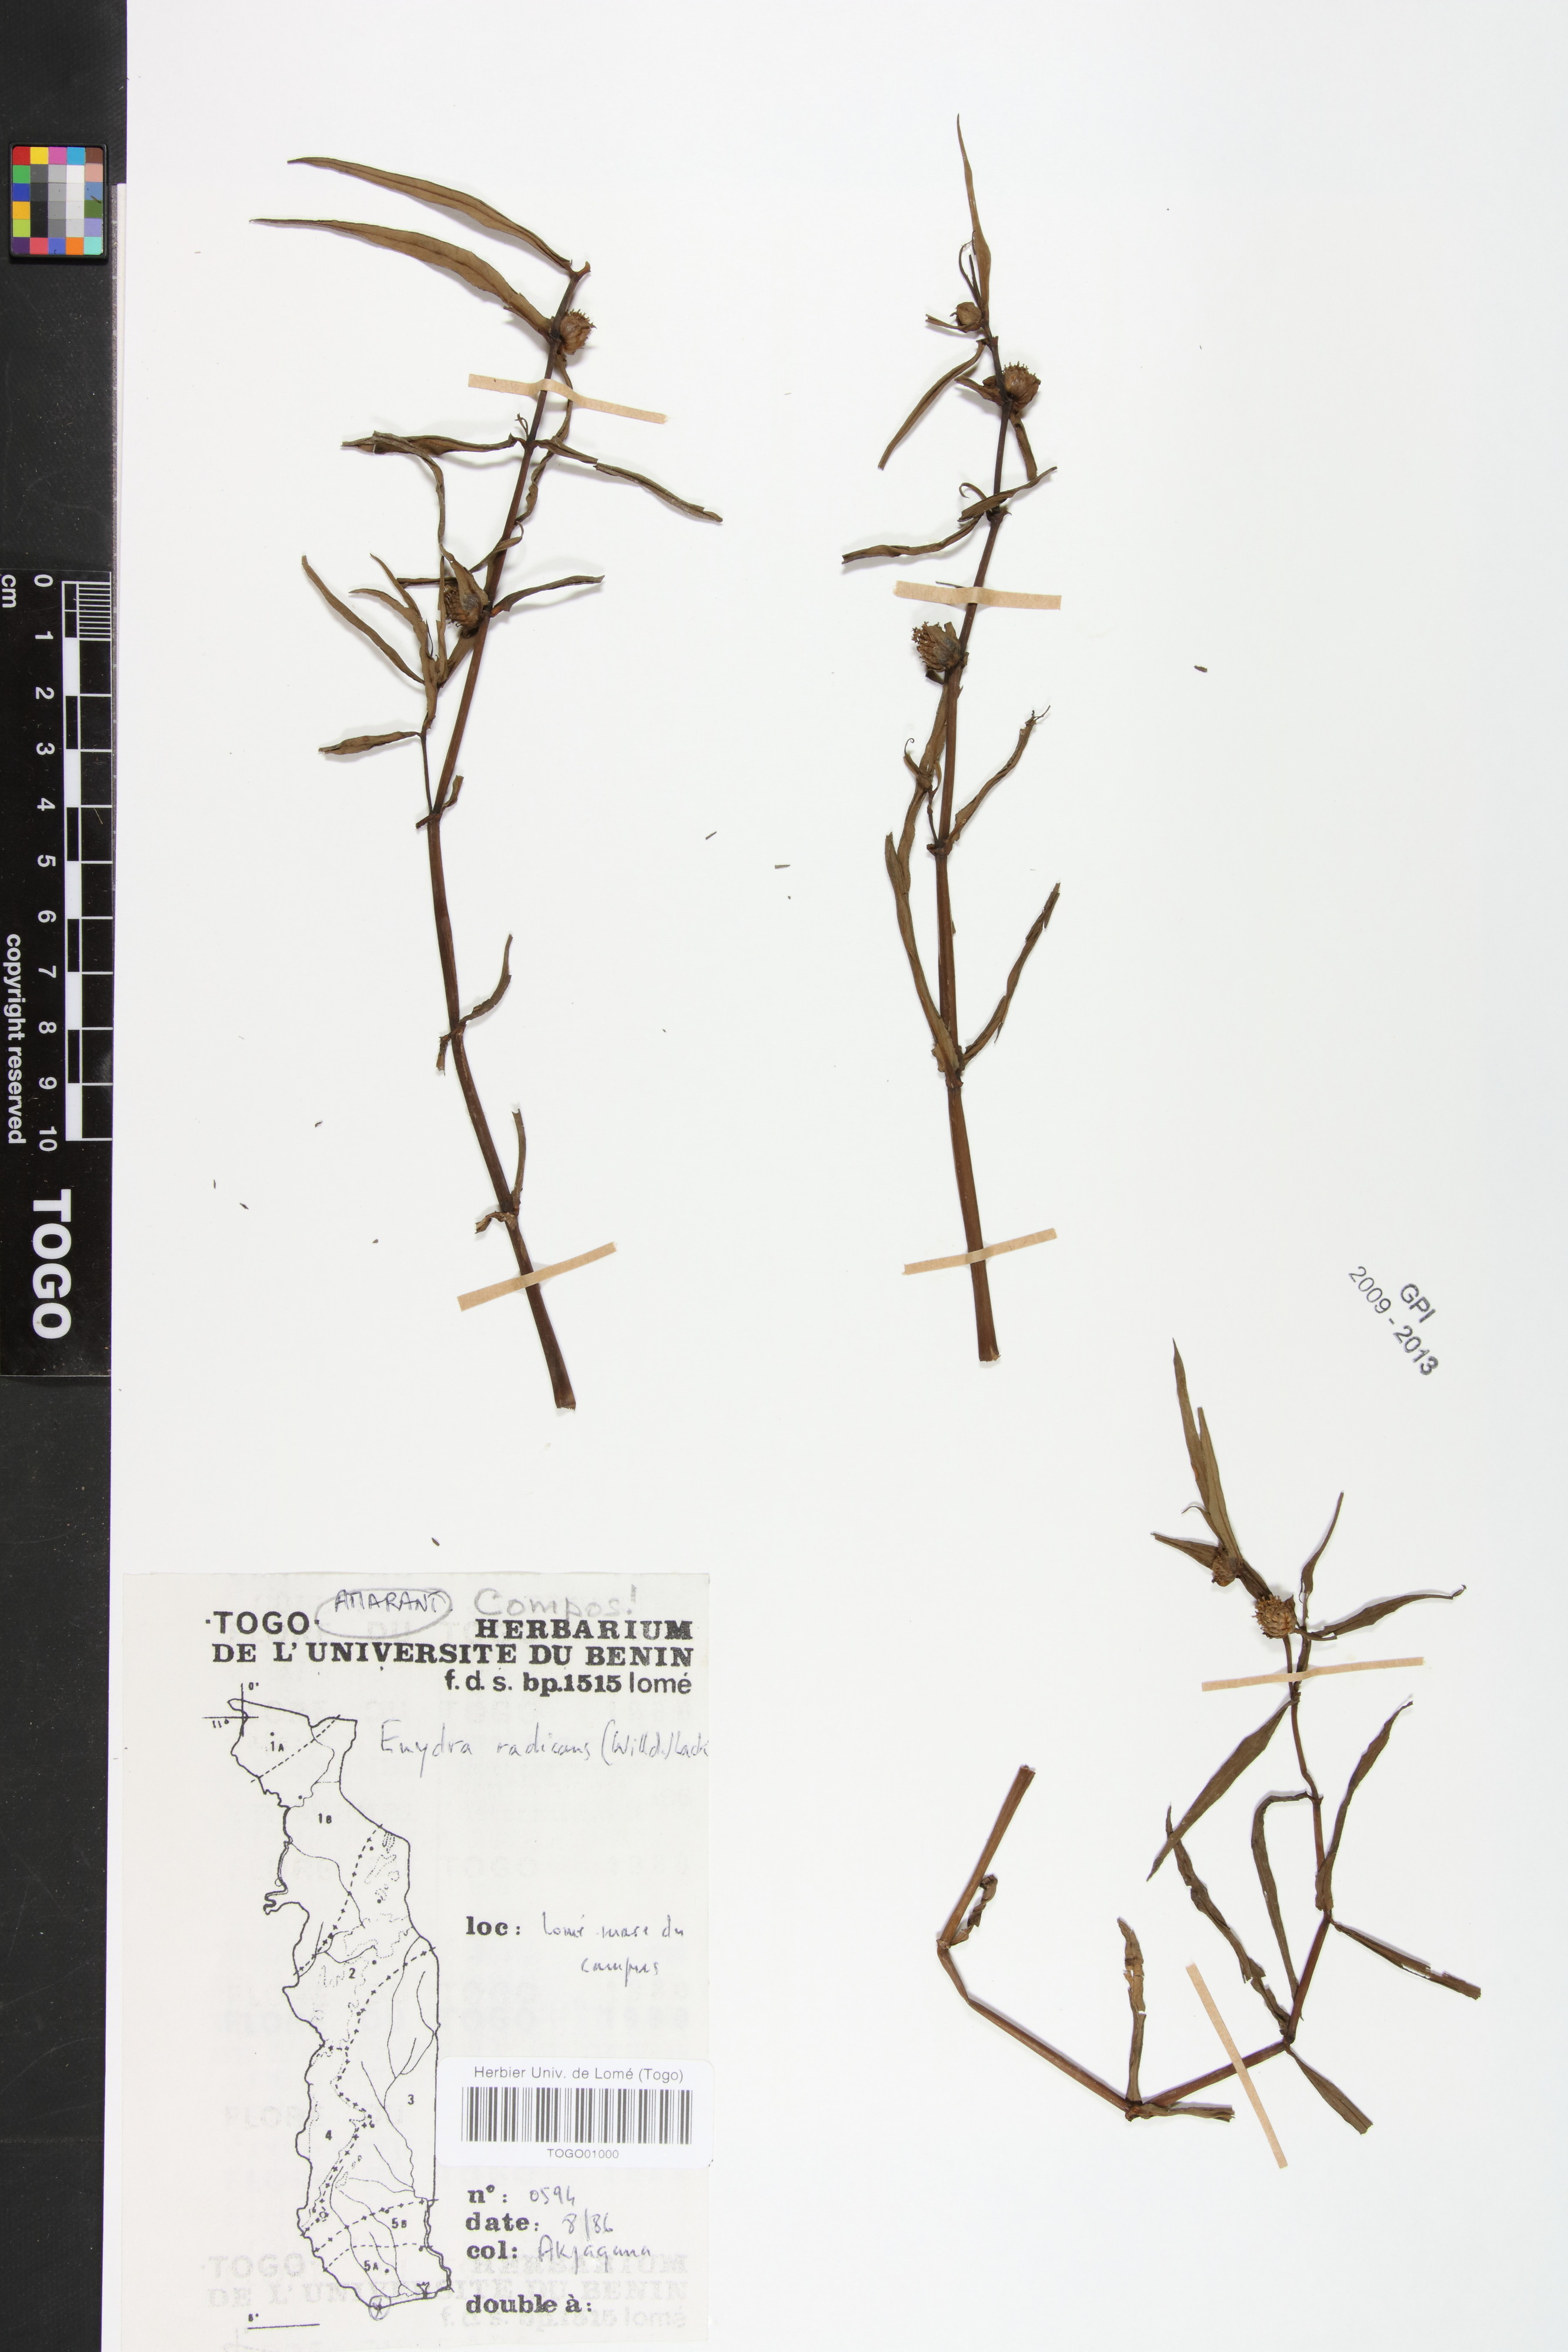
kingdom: Plantae
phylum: Tracheophyta
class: Magnoliopsida
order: Asterales
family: Asteraceae
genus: Enydra
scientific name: Enydra radicans
